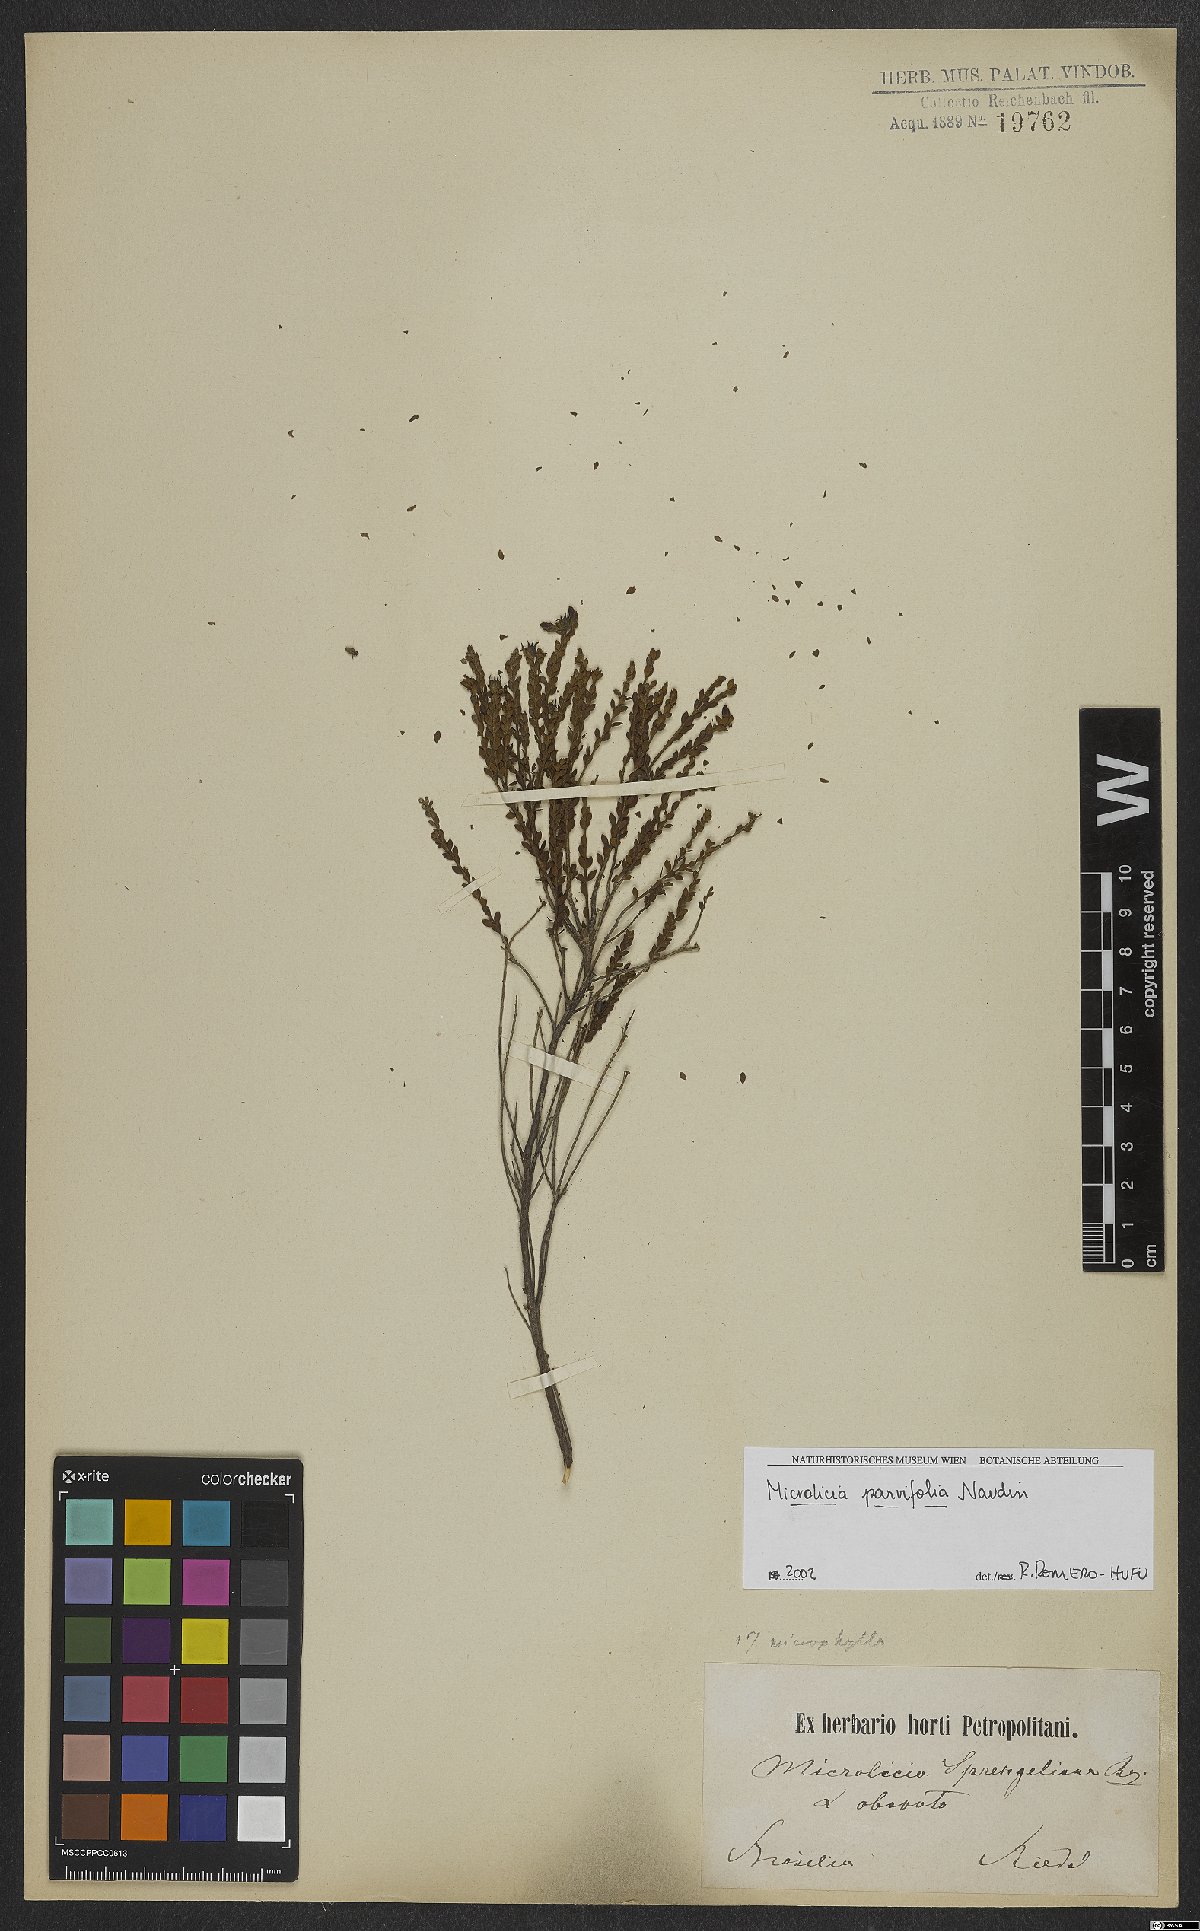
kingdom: Plantae
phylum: Tracheophyta
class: Magnoliopsida
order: Myrtales
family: Melastomataceae
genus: Microlicia
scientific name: Microlicia isophylla
